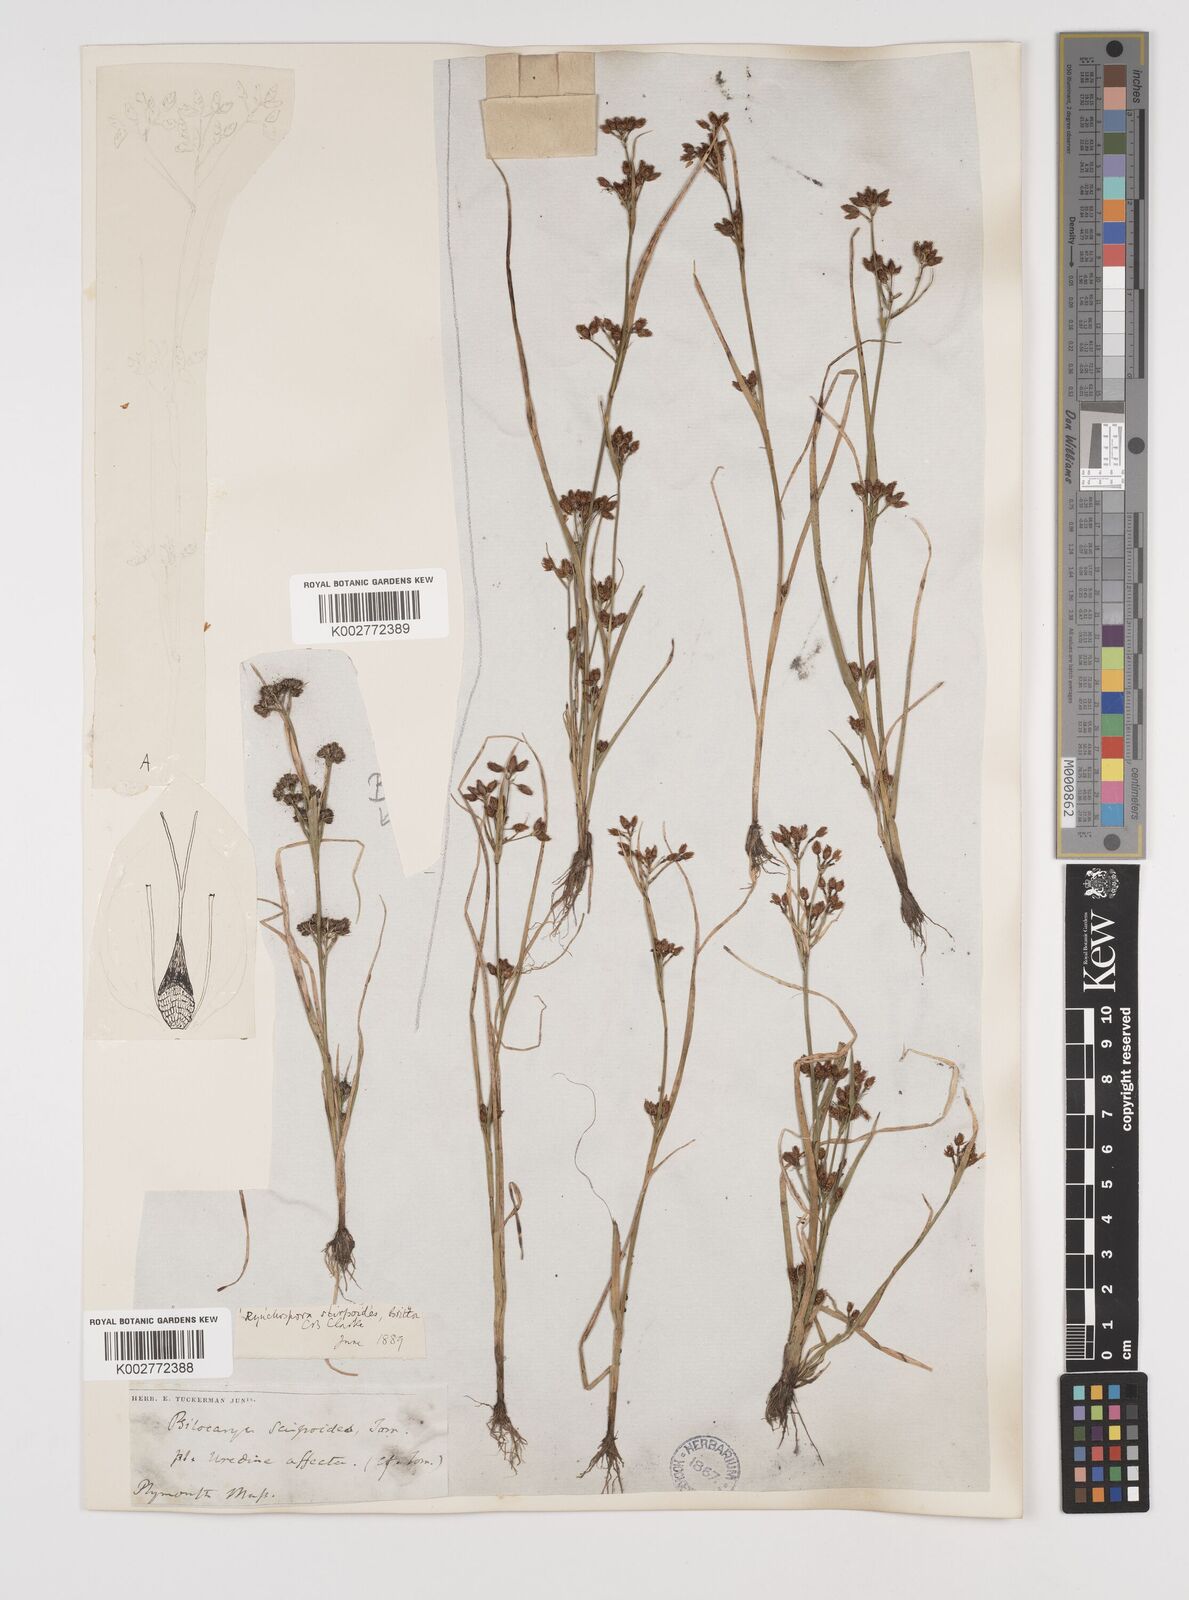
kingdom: Plantae
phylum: Tracheophyta
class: Liliopsida
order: Poales
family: Cyperaceae
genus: Rhynchospora
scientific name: Rhynchospora scirpoides
